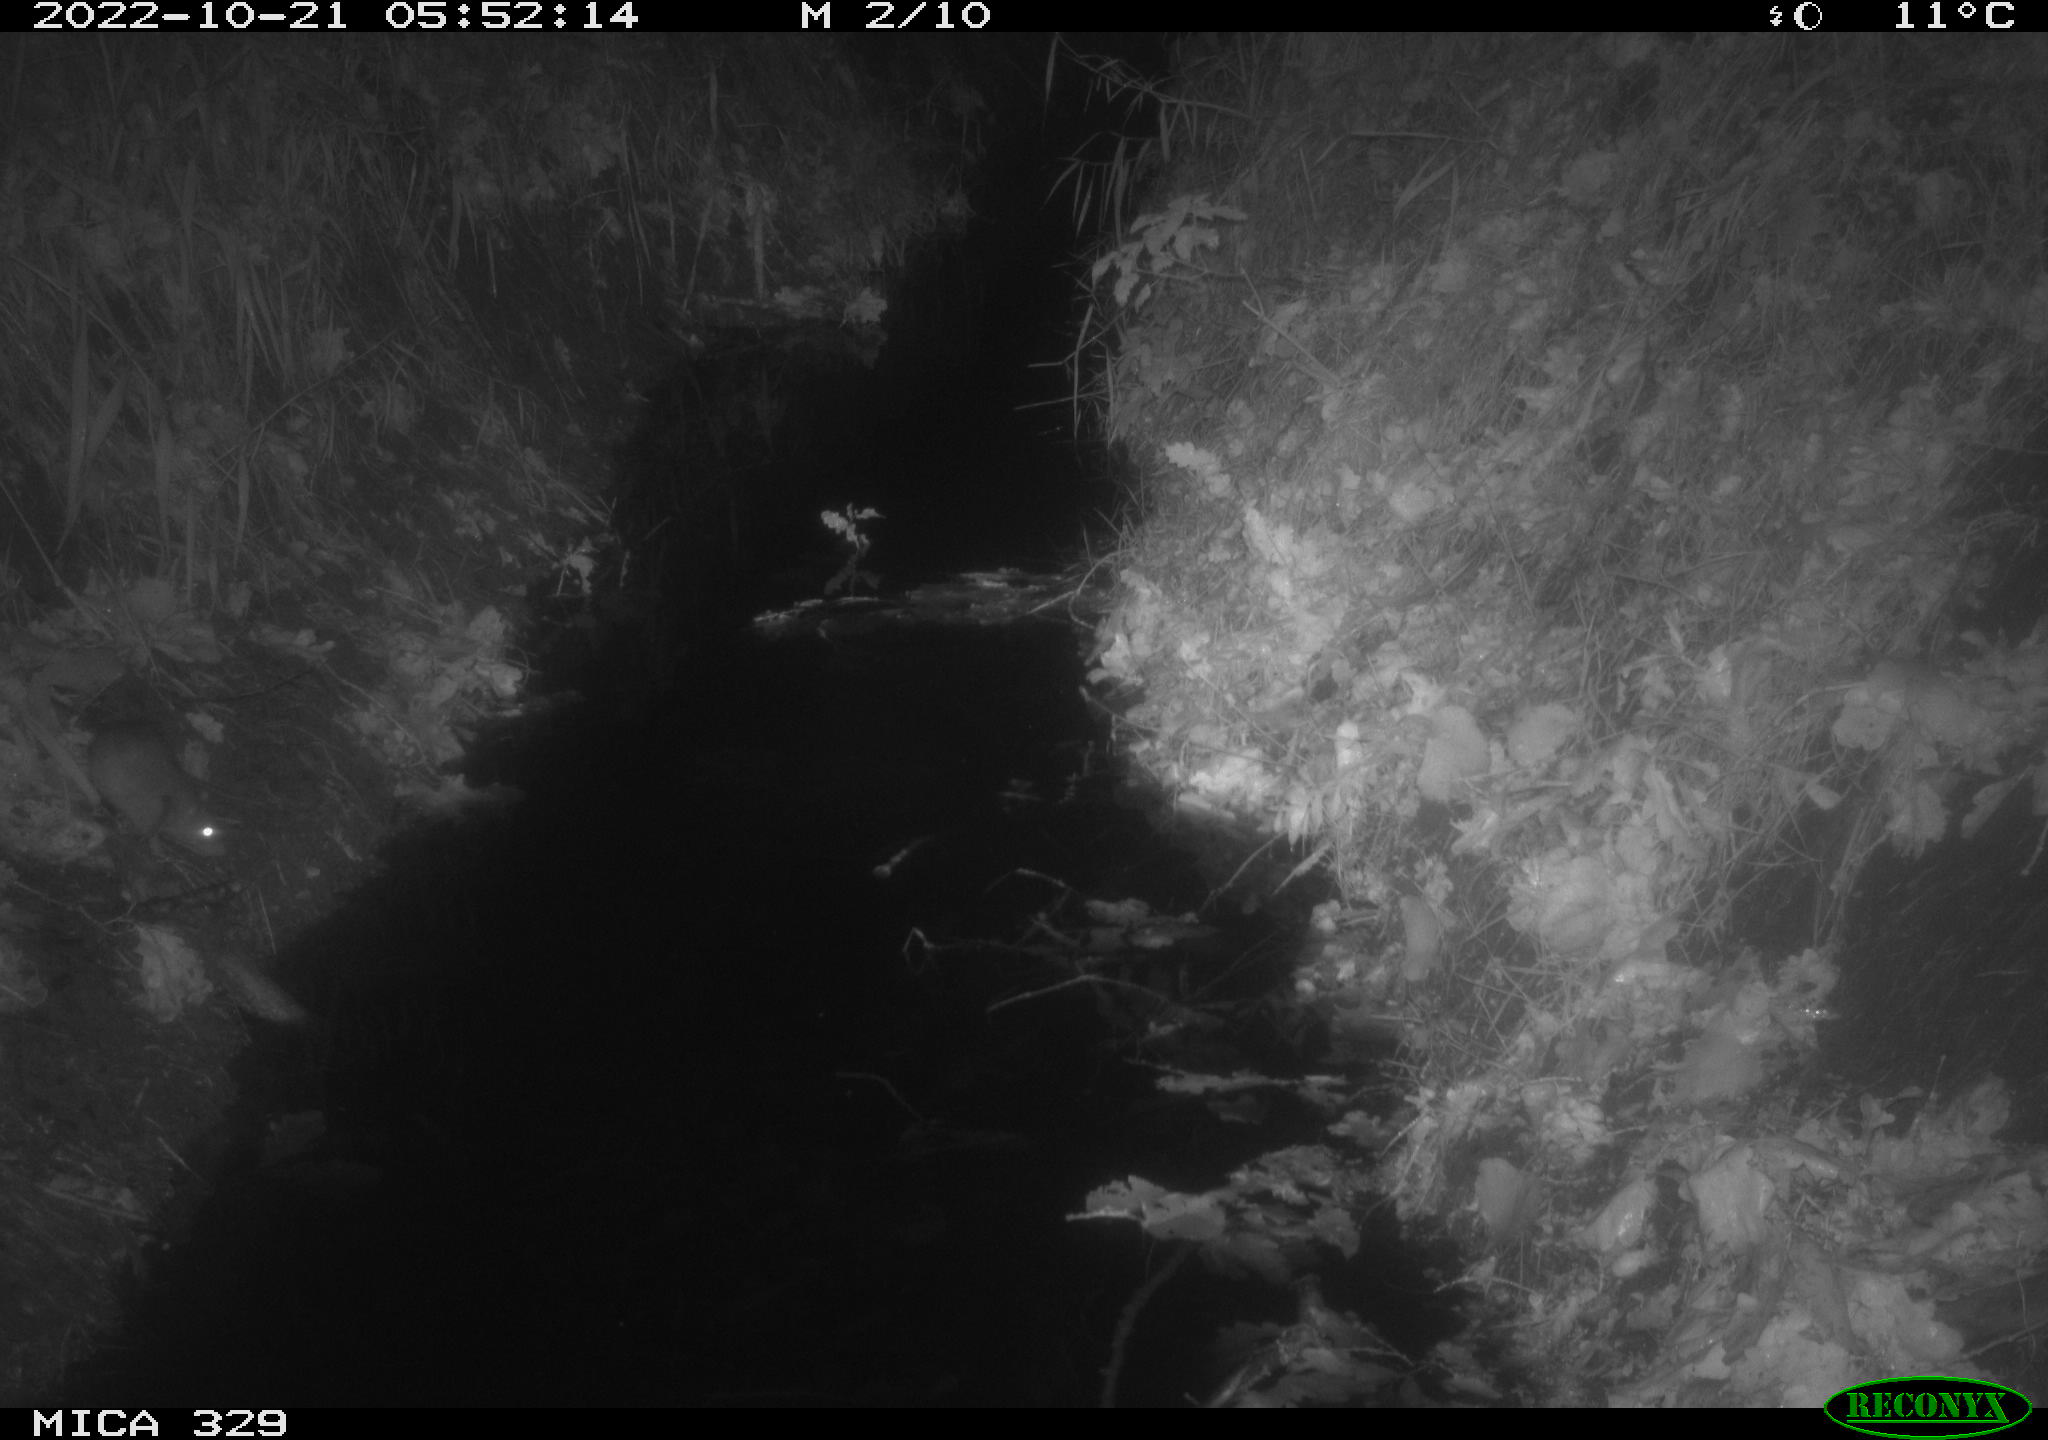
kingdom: Animalia
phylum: Chordata
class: Mammalia
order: Rodentia
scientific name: Rodentia
